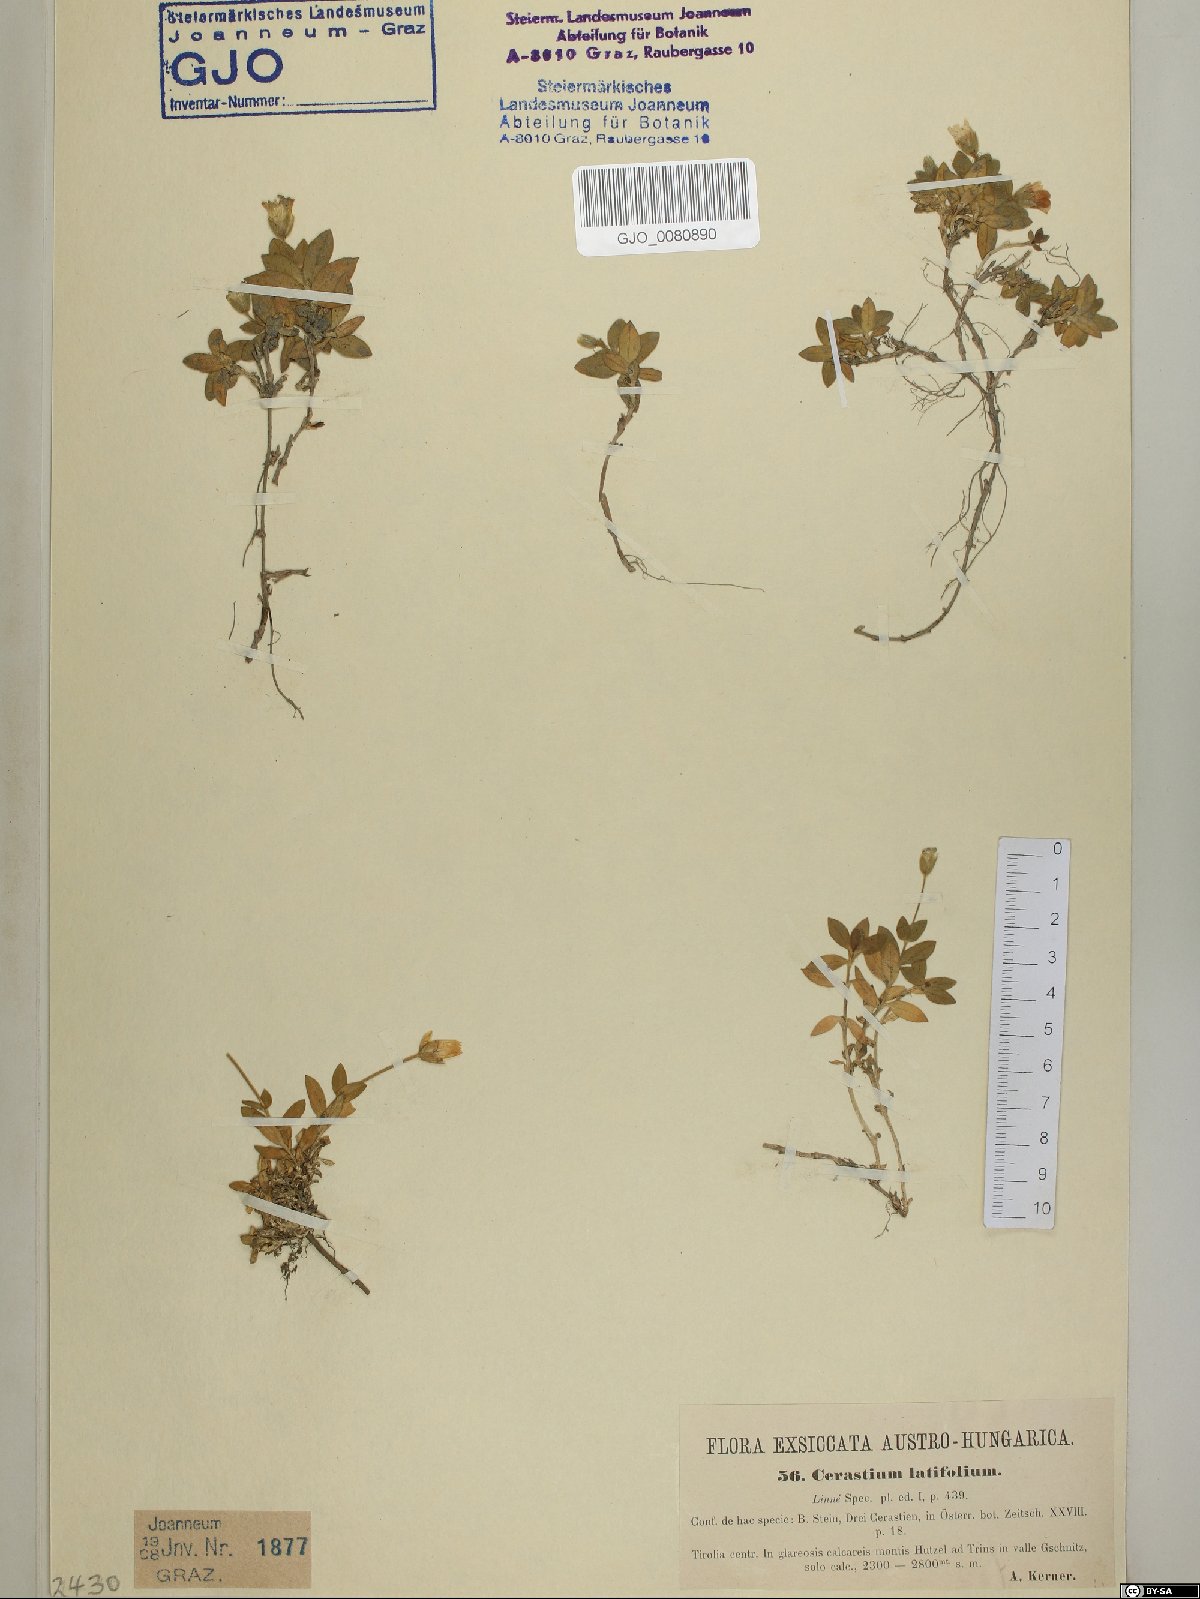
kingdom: Plantae
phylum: Tracheophyta
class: Magnoliopsida
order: Caryophyllales
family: Caryophyllaceae
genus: Cerastium
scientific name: Cerastium latifolium
